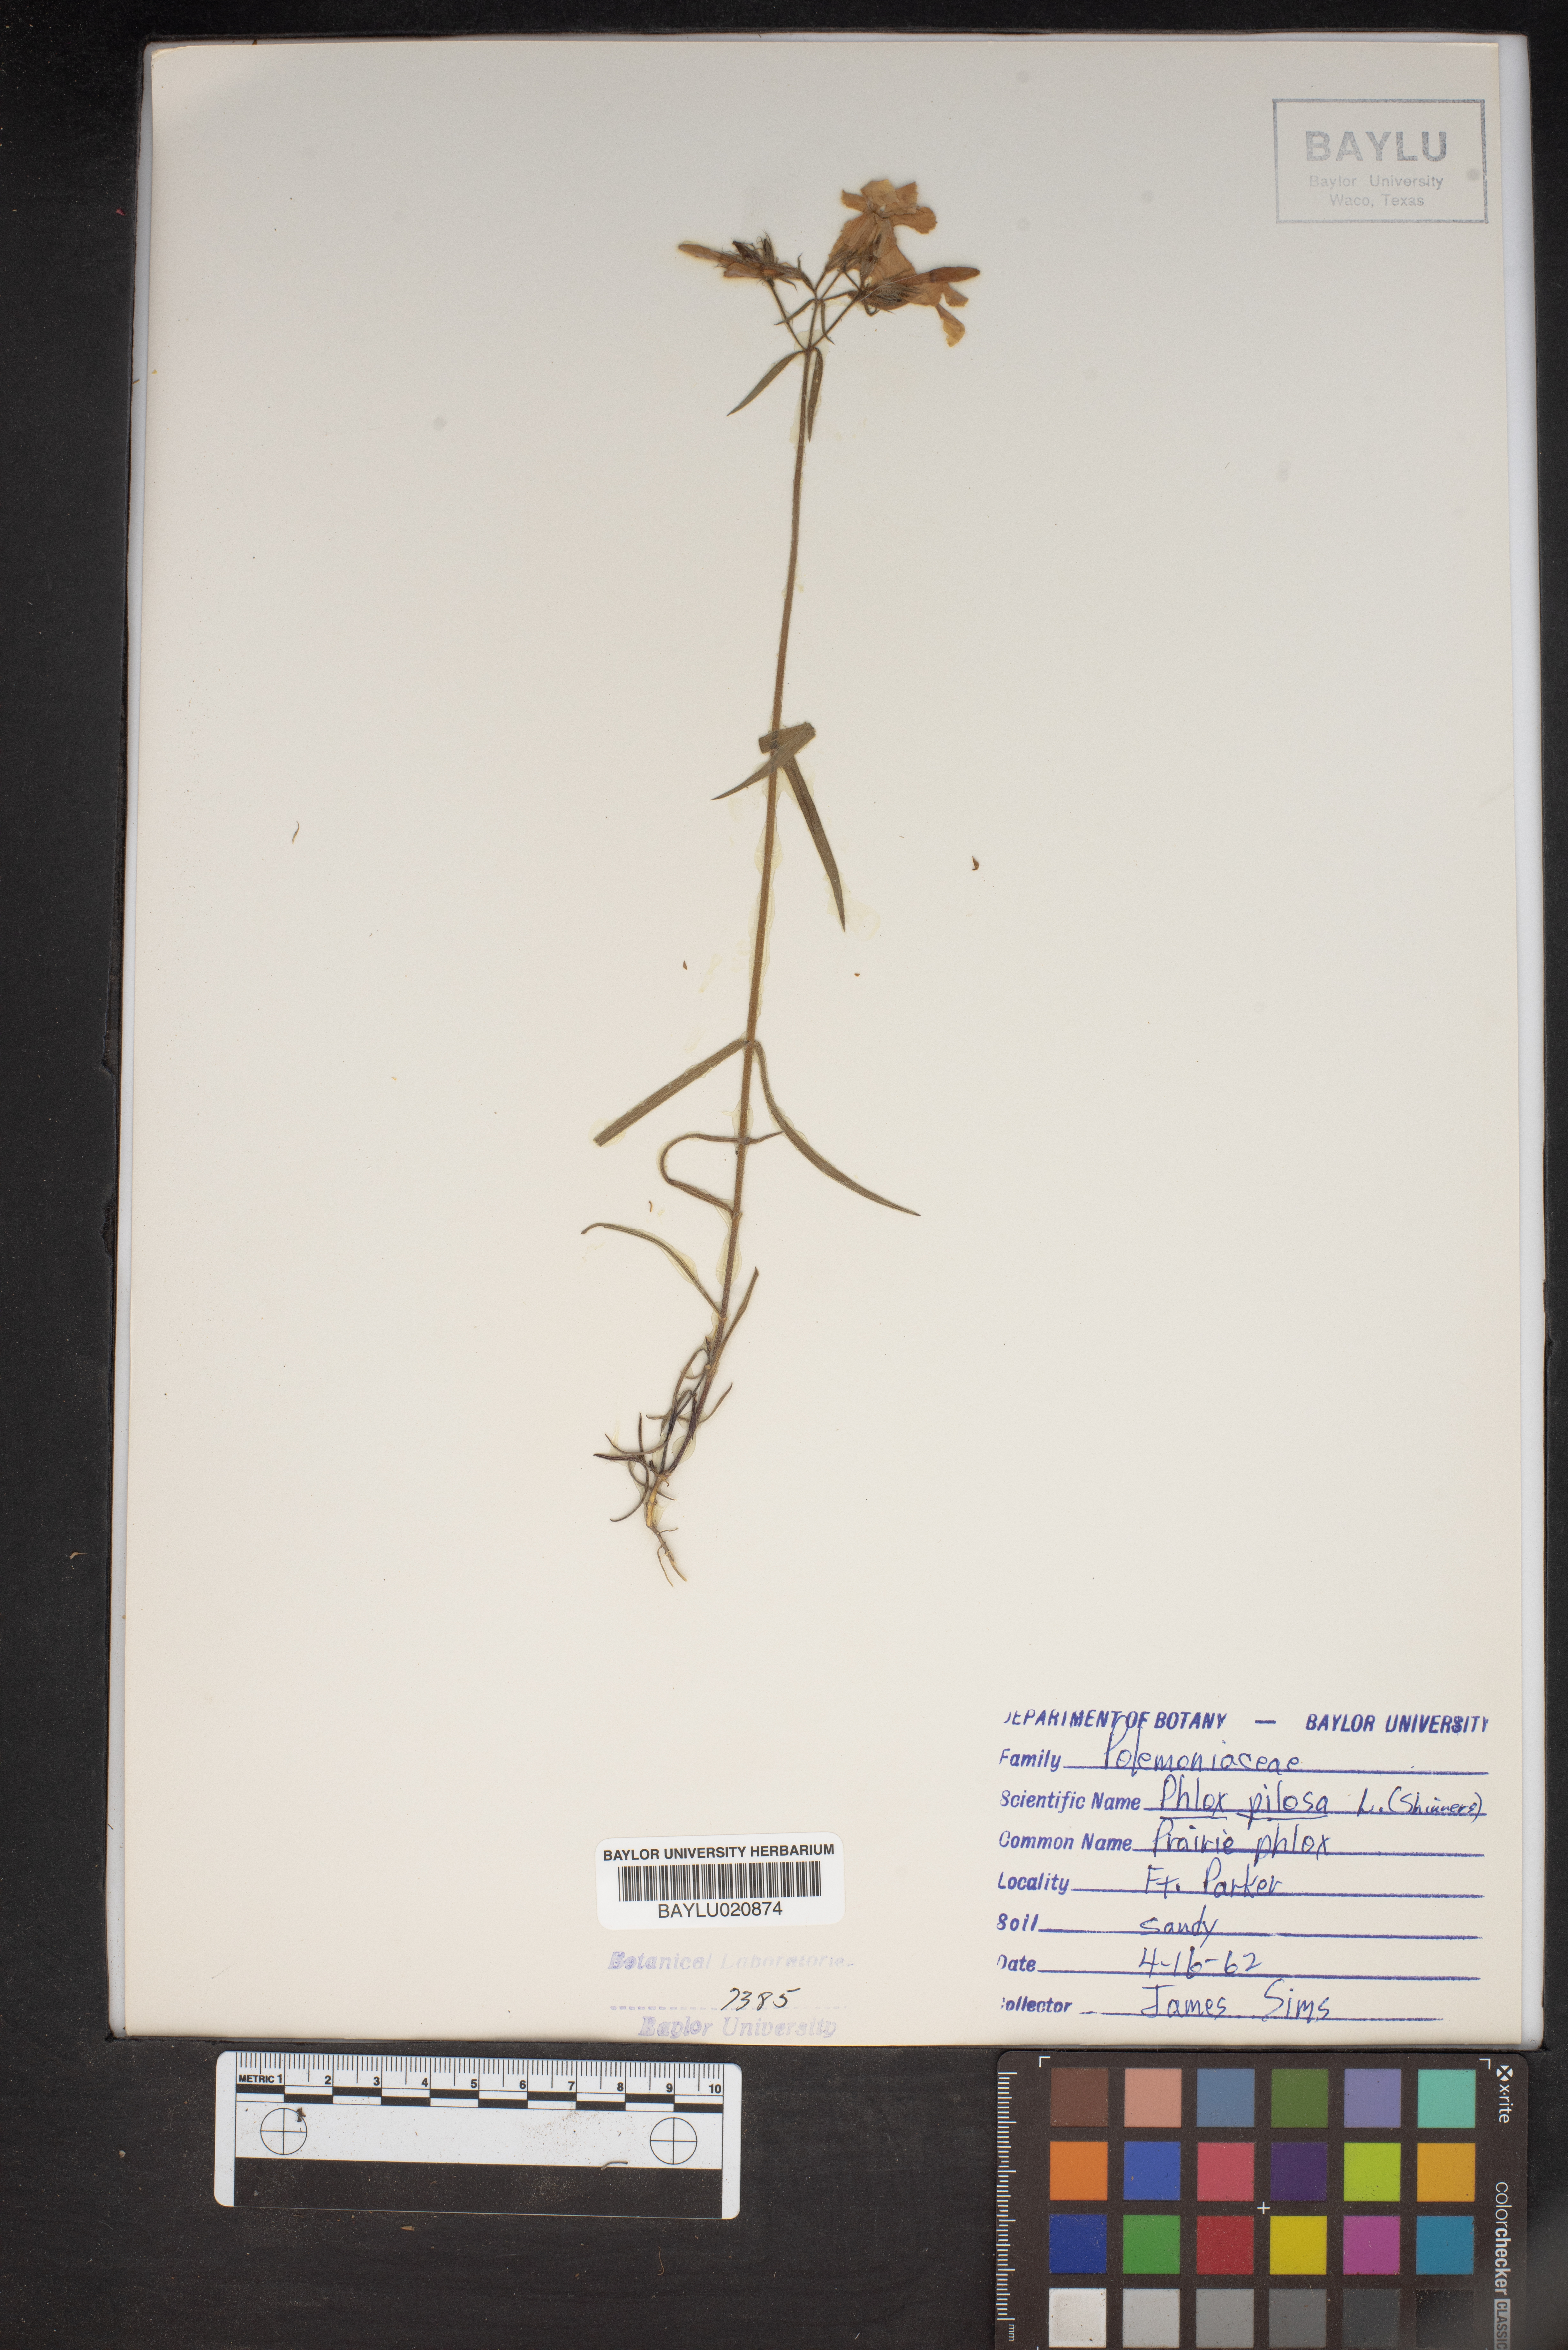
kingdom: Plantae
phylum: Tracheophyta
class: Magnoliopsida
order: Ericales
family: Polemoniaceae
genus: Phlox
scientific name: Phlox pilosa
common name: Prairie phlox
